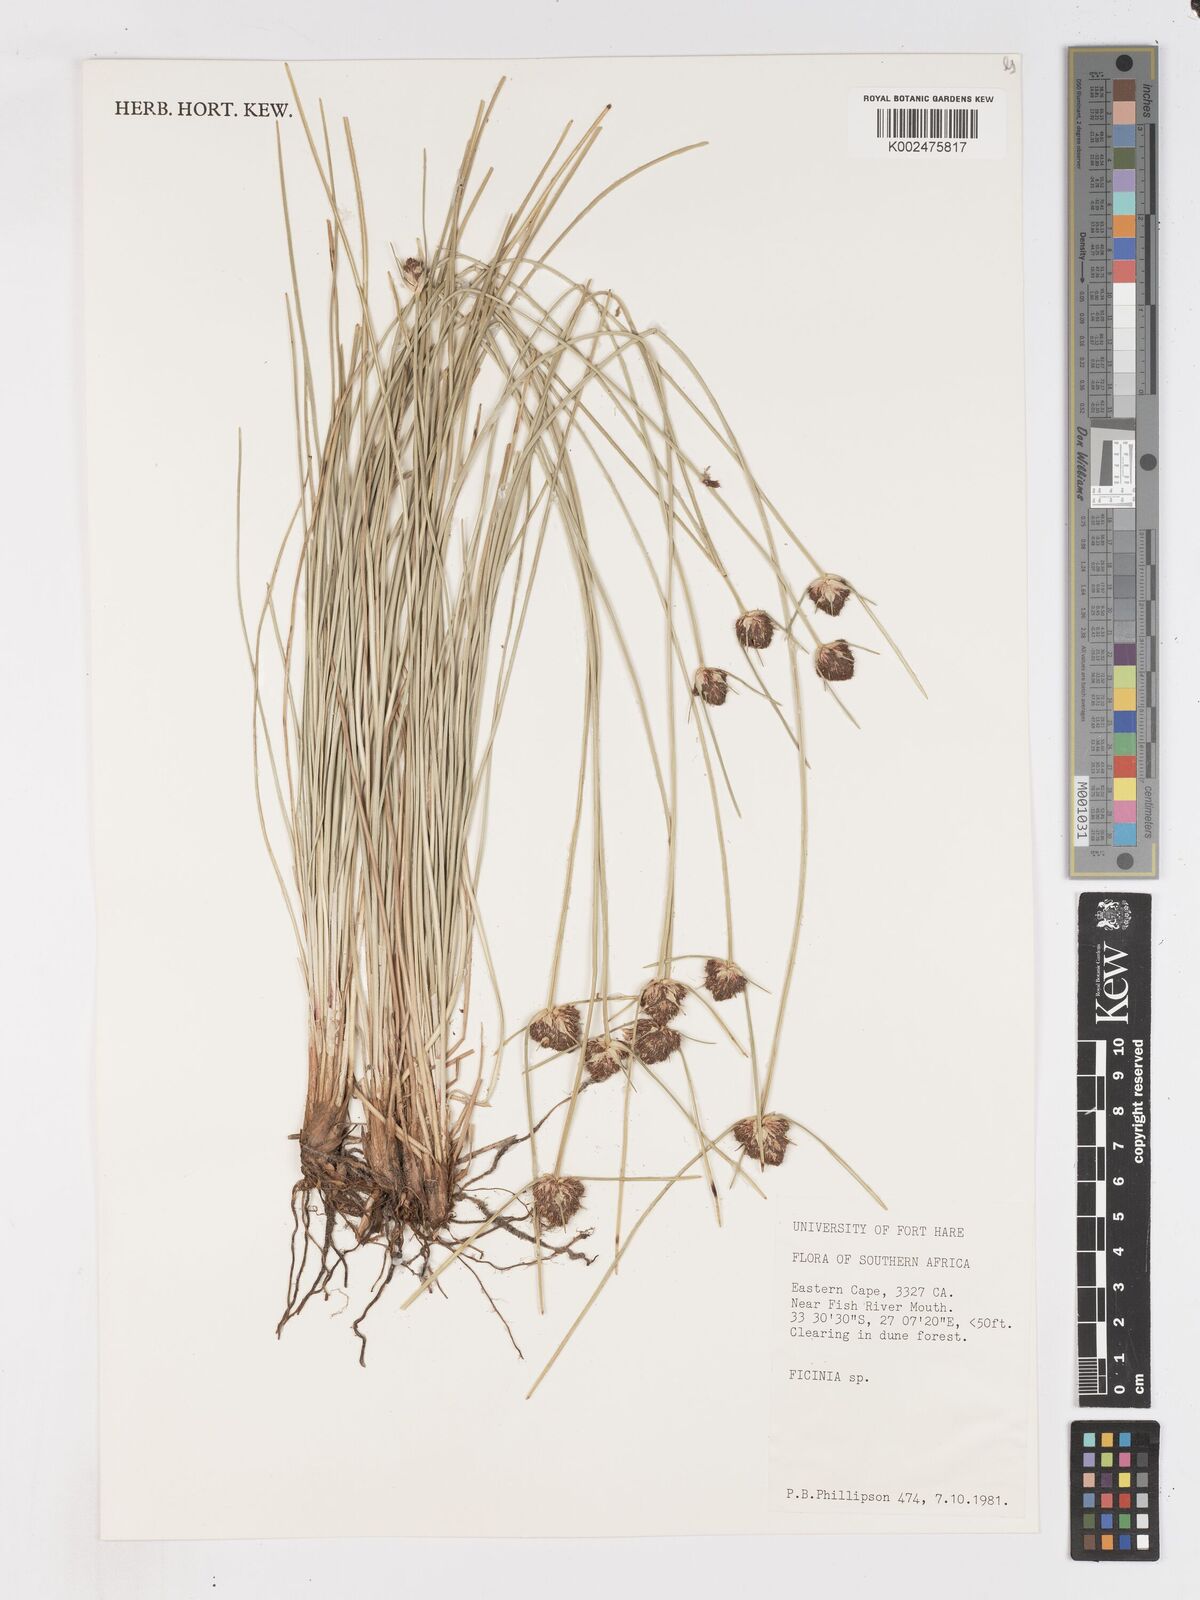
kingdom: Plantae
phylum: Tracheophyta
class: Liliopsida
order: Poales
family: Cyperaceae
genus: Ficinia
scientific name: Ficinia arenicola
